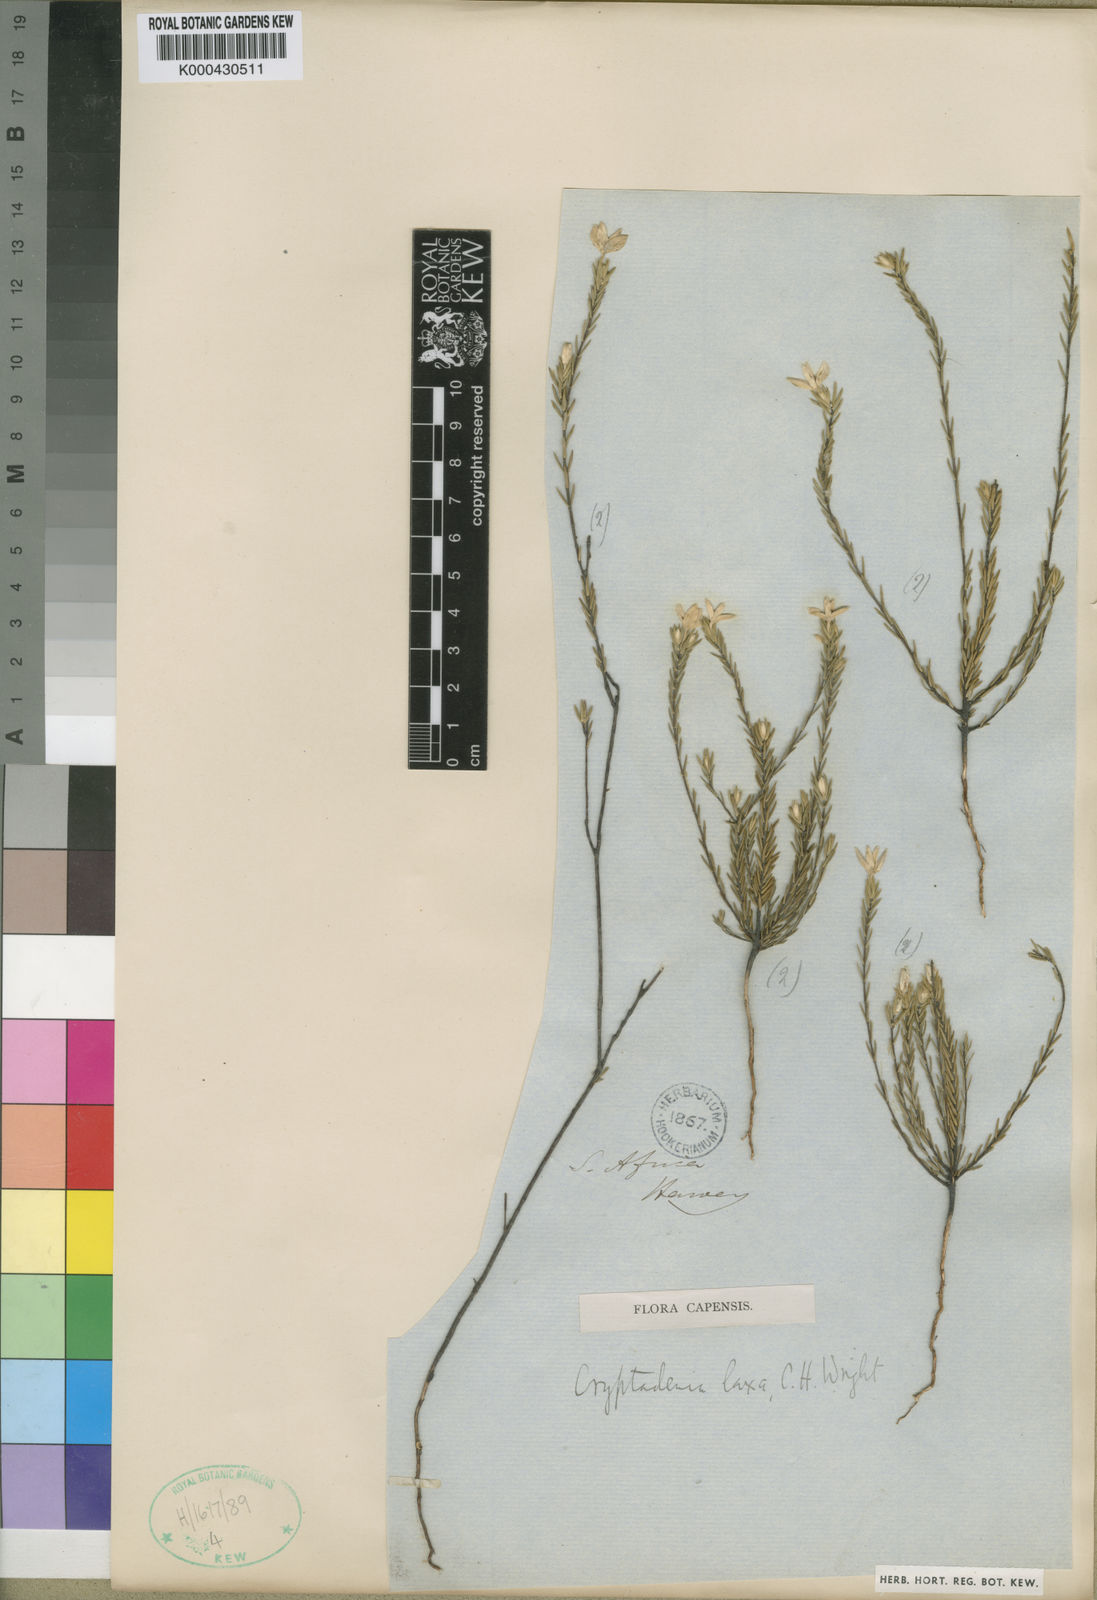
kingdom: Plantae
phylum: Tracheophyta
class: Magnoliopsida
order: Malvales
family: Thymelaeaceae
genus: Lachnaea
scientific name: Lachnaea laxa
